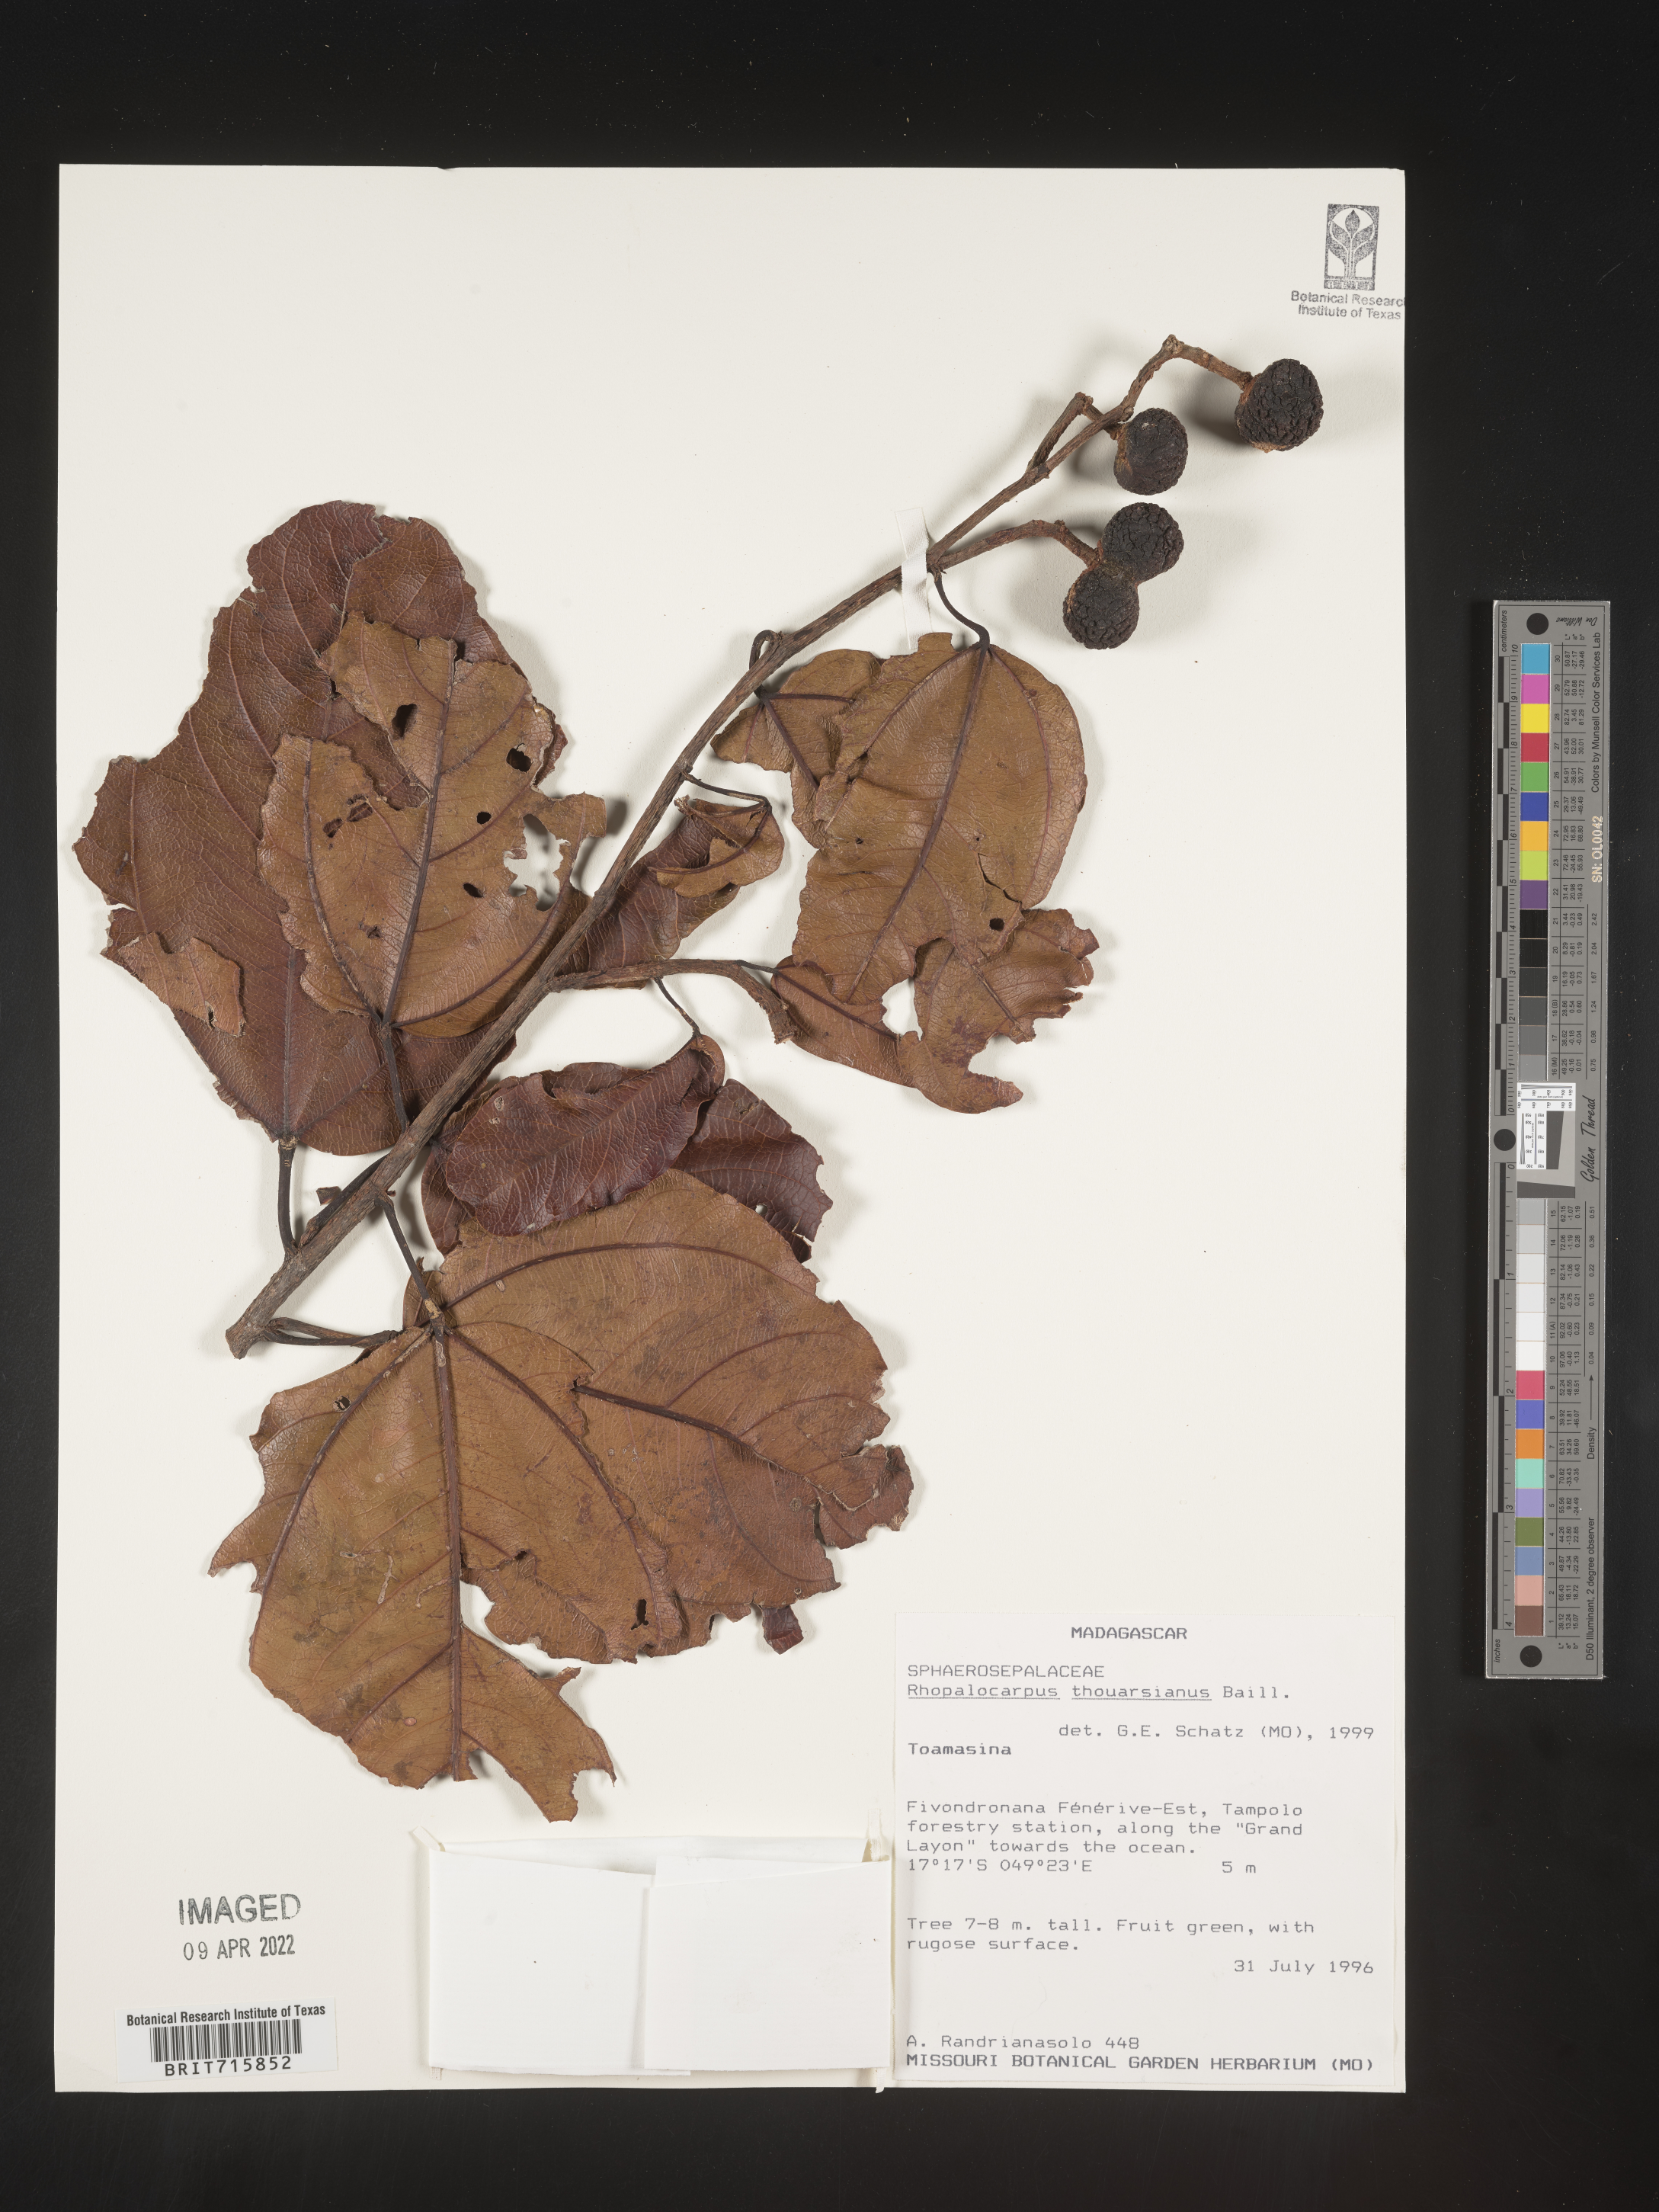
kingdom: Plantae
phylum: Tracheophyta
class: Magnoliopsida
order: Malvales
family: Sphaerosepalaceae
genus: Rhopalocarpus
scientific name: Rhopalocarpus
